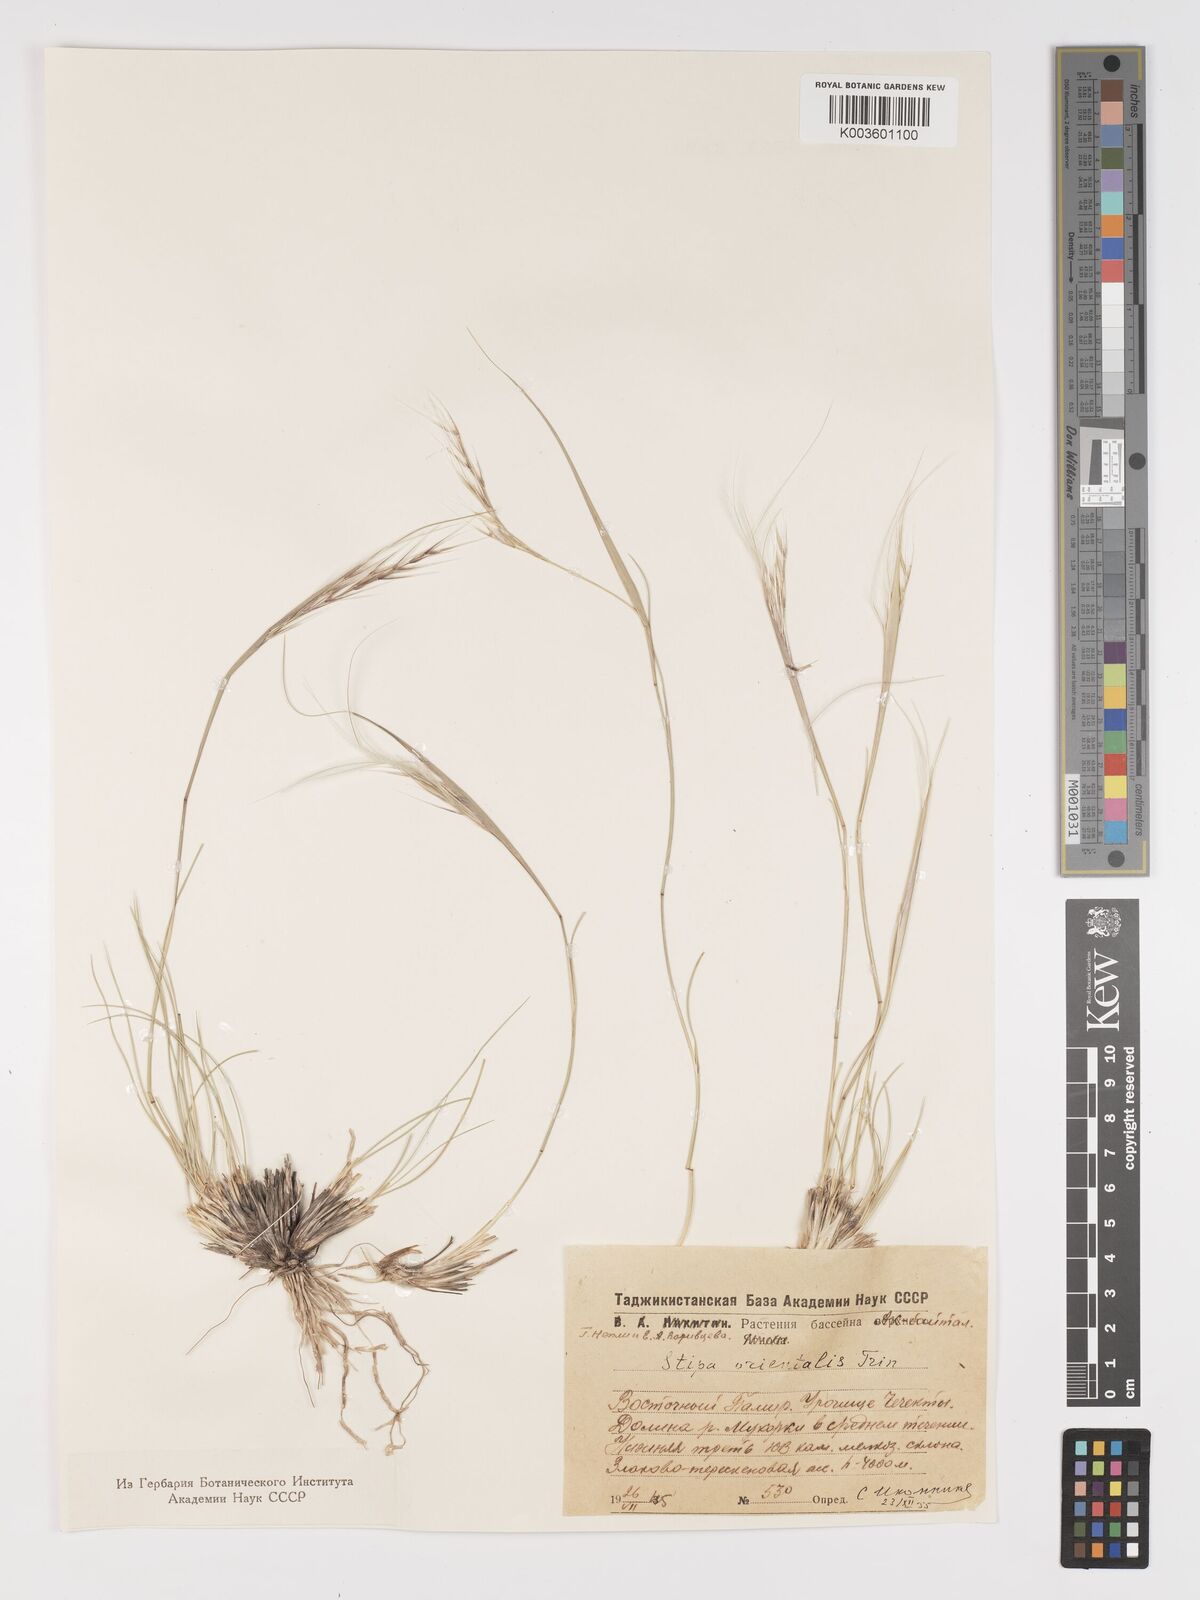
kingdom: Plantae
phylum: Tracheophyta
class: Liliopsida
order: Poales
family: Poaceae
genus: Stipa
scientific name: Stipa orientalis
